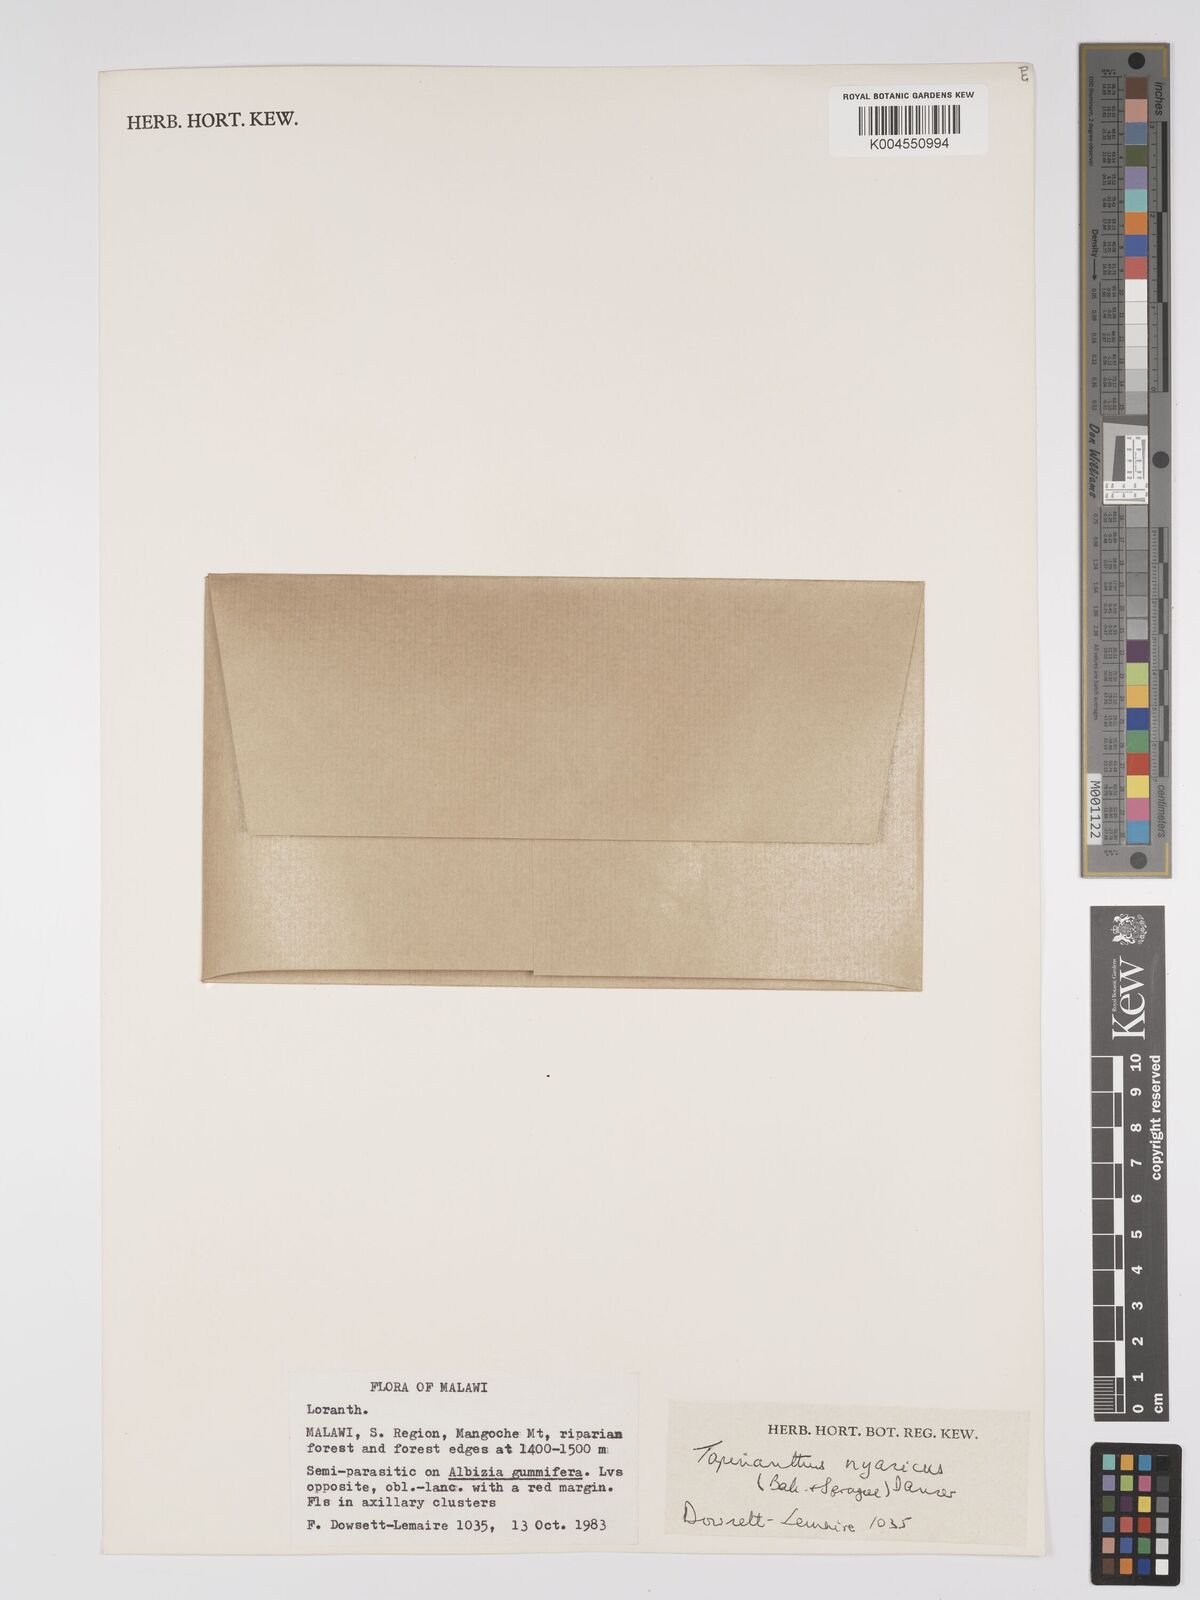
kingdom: Plantae
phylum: Tracheophyta
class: Magnoliopsida
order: Santalales
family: Loranthaceae
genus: Agelanthus
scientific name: Agelanthus nyasicus
